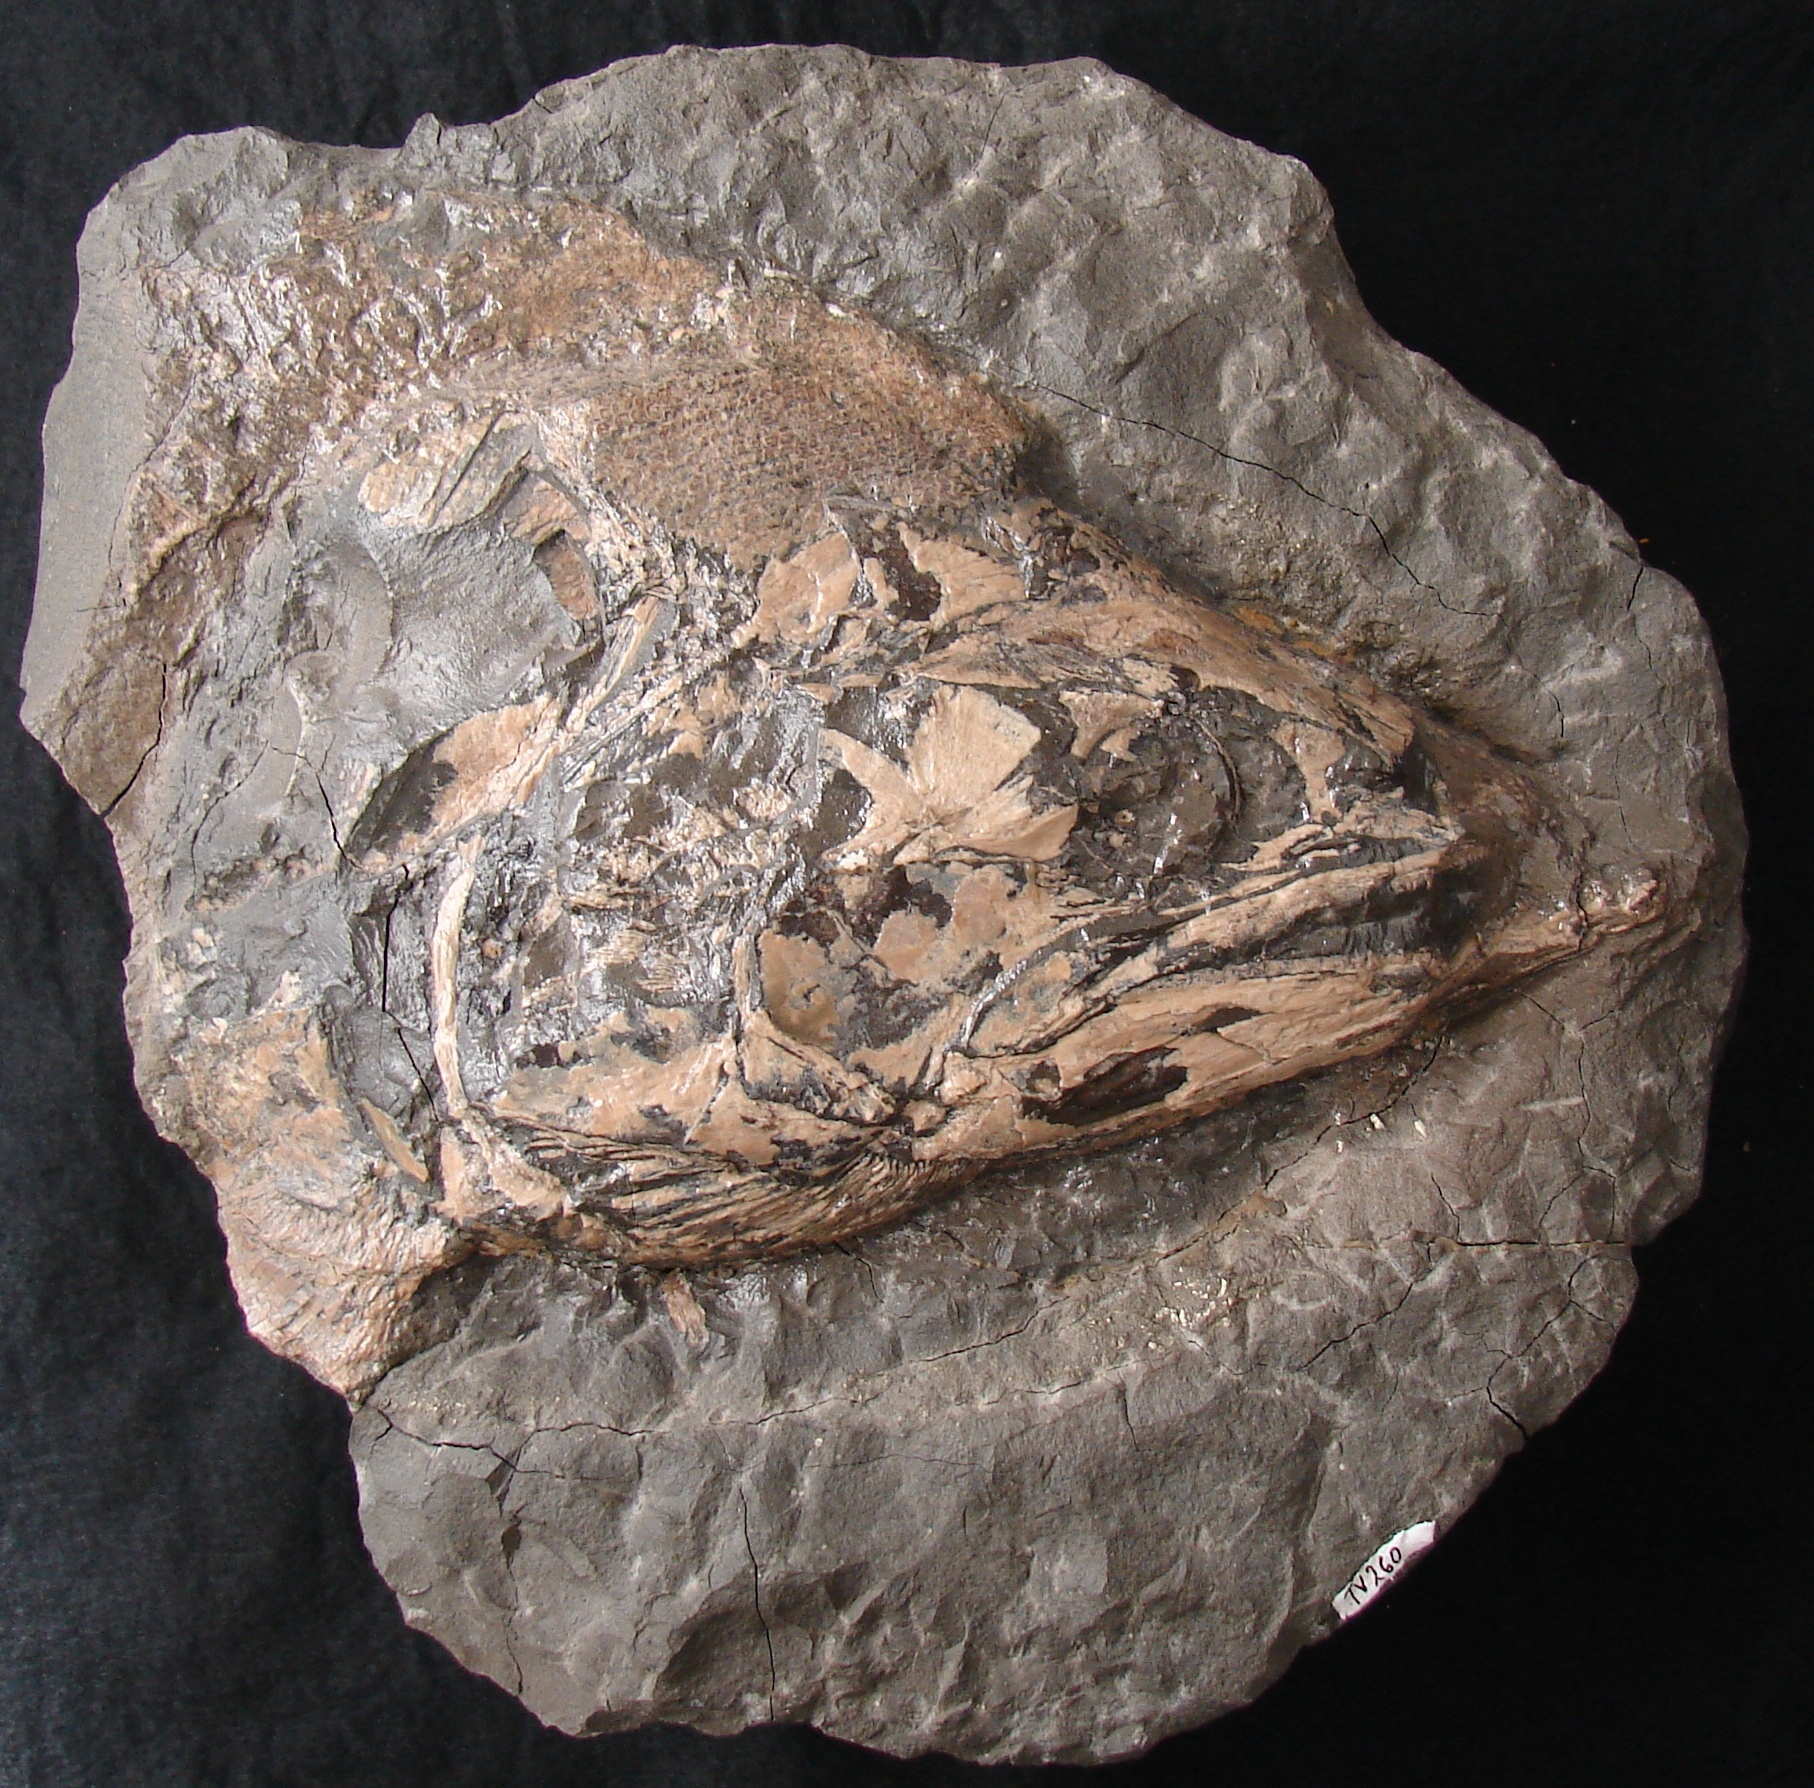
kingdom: Animalia
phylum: Chordata
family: Pachycormidae
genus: Pachycormus
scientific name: Pachycormus macropterus
